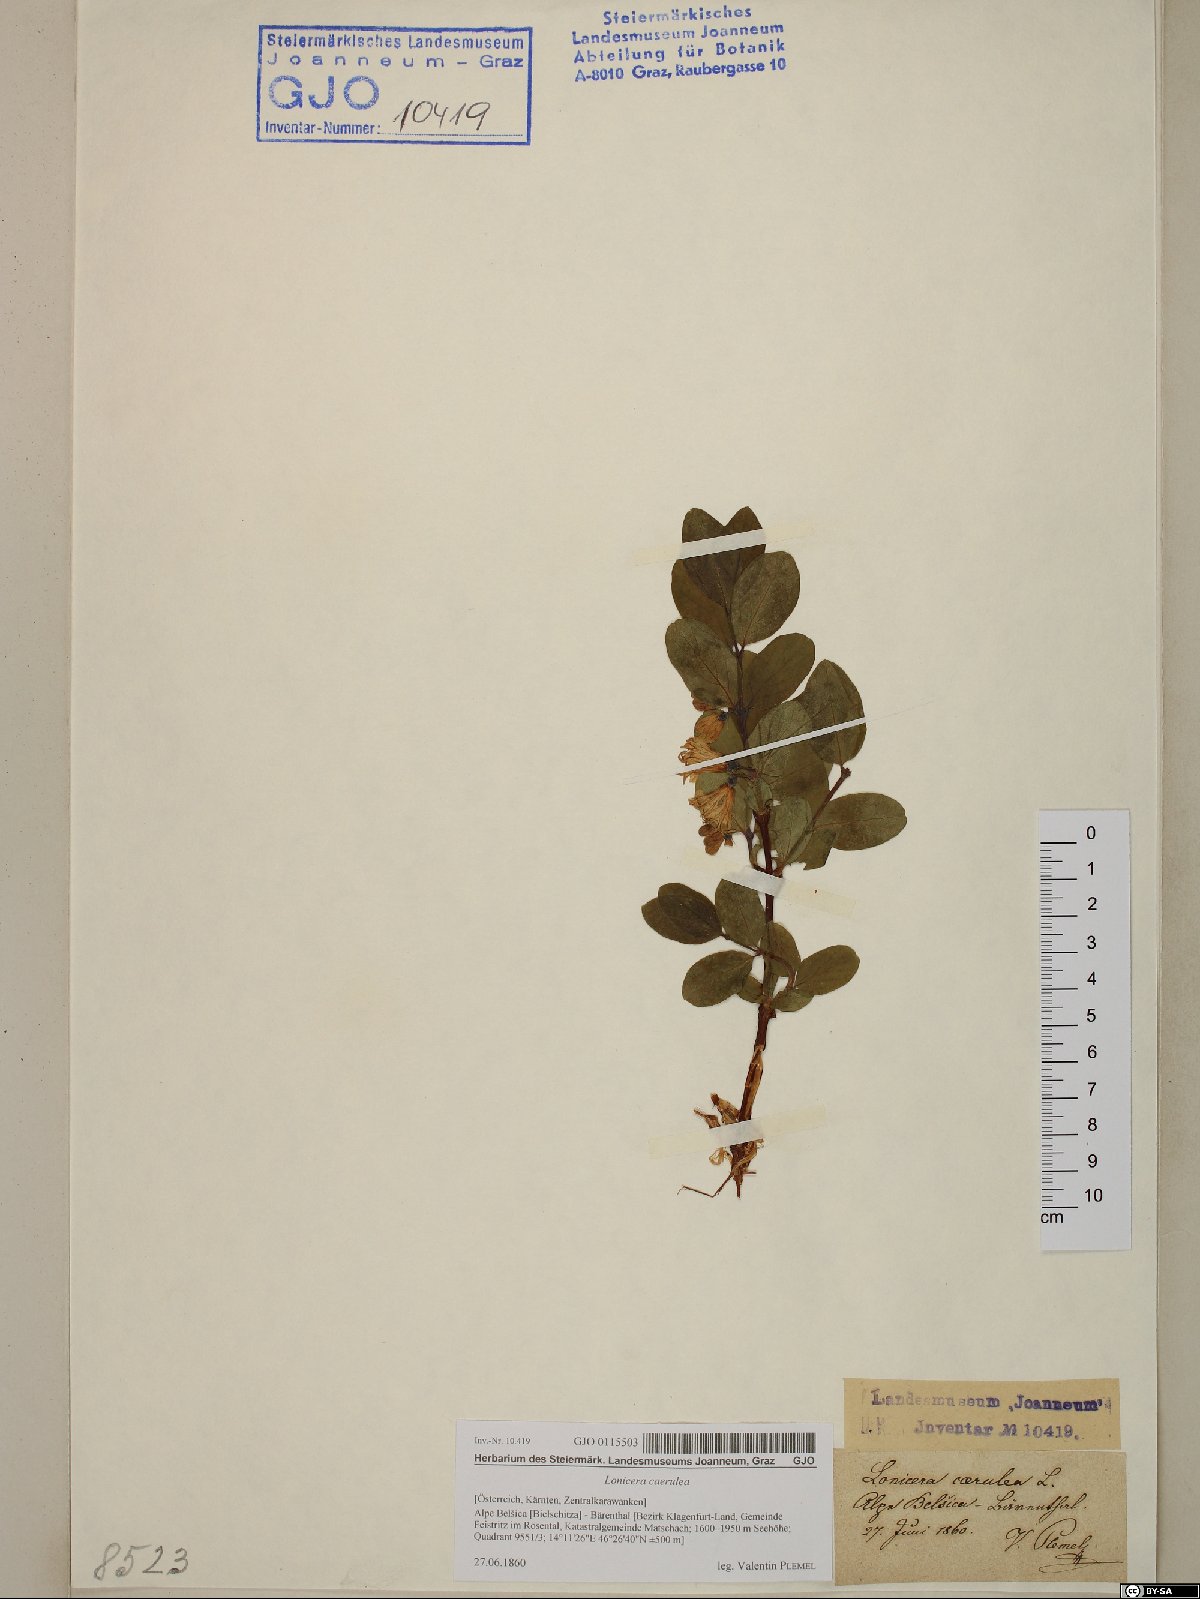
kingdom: Plantae
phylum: Tracheophyta
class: Magnoliopsida
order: Dipsacales
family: Caprifoliaceae
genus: Lonicera
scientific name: Lonicera caerulea
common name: Blue honeysuckle
